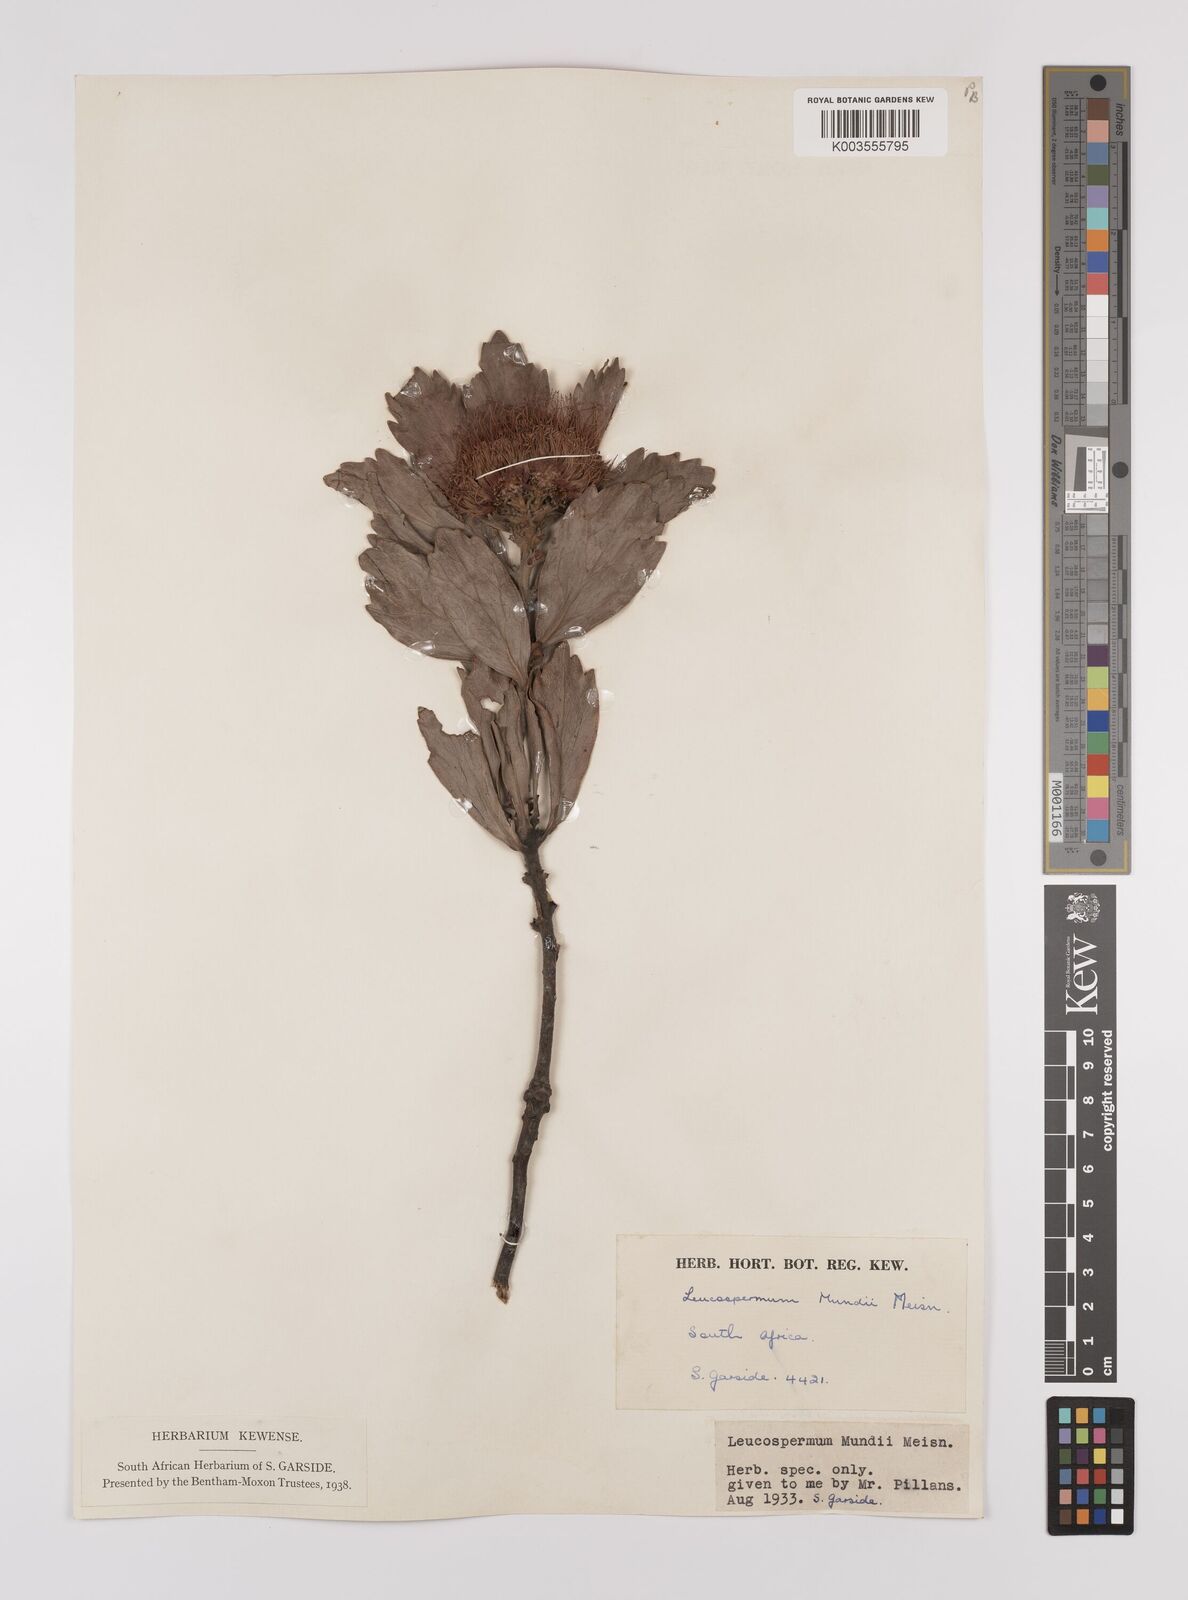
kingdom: Plantae
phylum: Tracheophyta
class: Magnoliopsida
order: Proteales
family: Proteaceae
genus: Leucospermum
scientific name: Leucospermum mundii
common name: Langeberg pincushion
